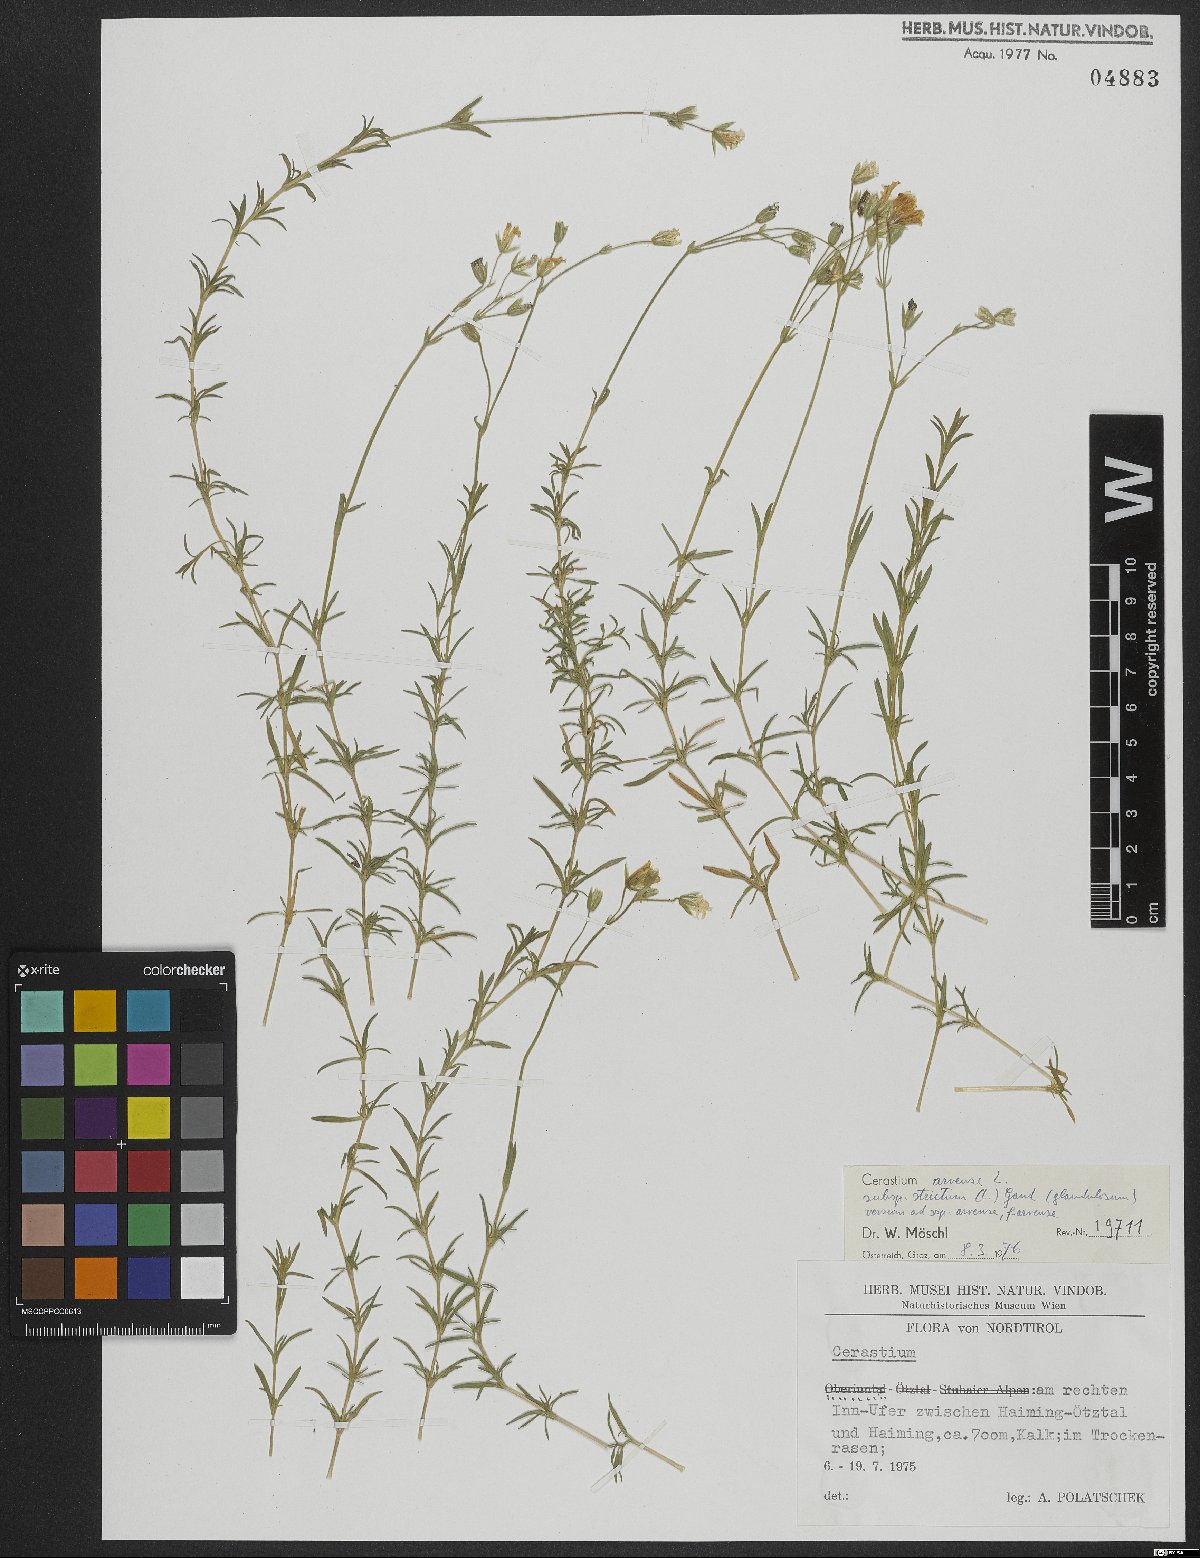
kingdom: Plantae
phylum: Tracheophyta
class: Magnoliopsida
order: Caryophyllales
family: Caryophyllaceae
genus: Cerastium
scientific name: Cerastium elongatum
